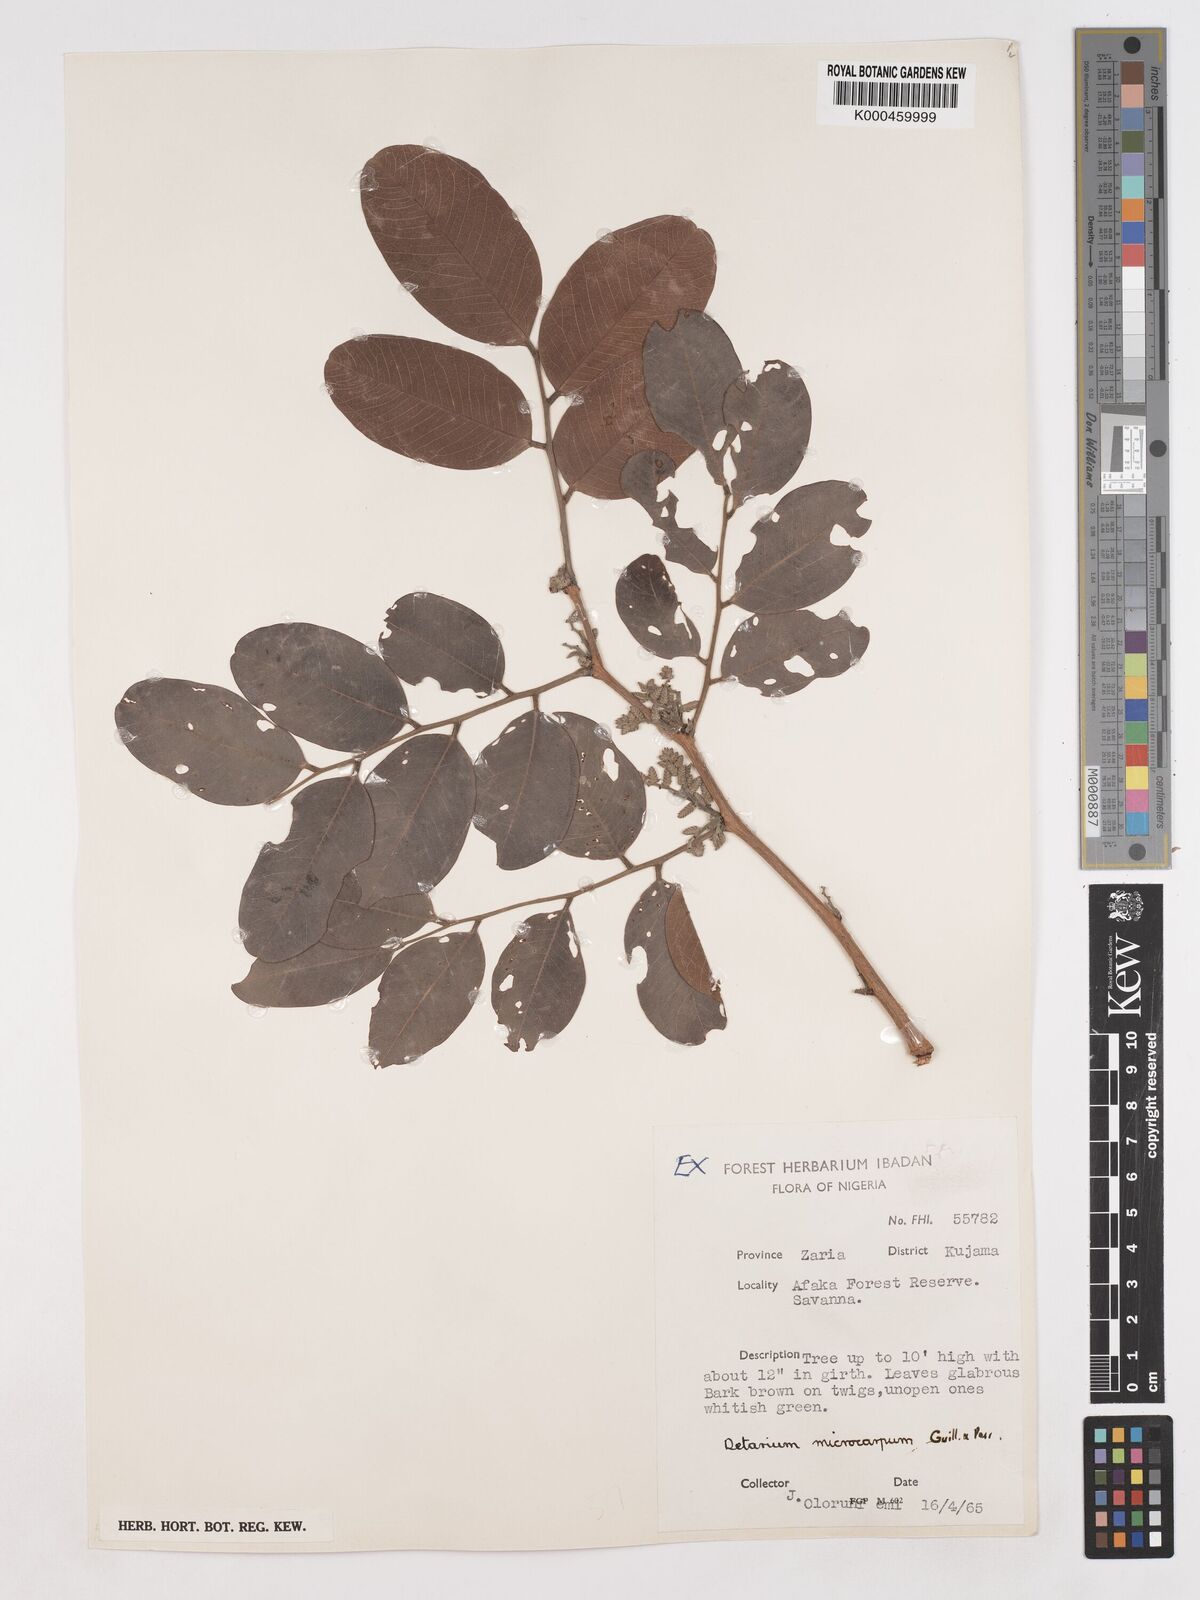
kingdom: Plantae
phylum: Tracheophyta
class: Magnoliopsida
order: Fabales
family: Fabaceae
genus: Detarium
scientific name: Detarium microcarpum
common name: Sweet dattock
